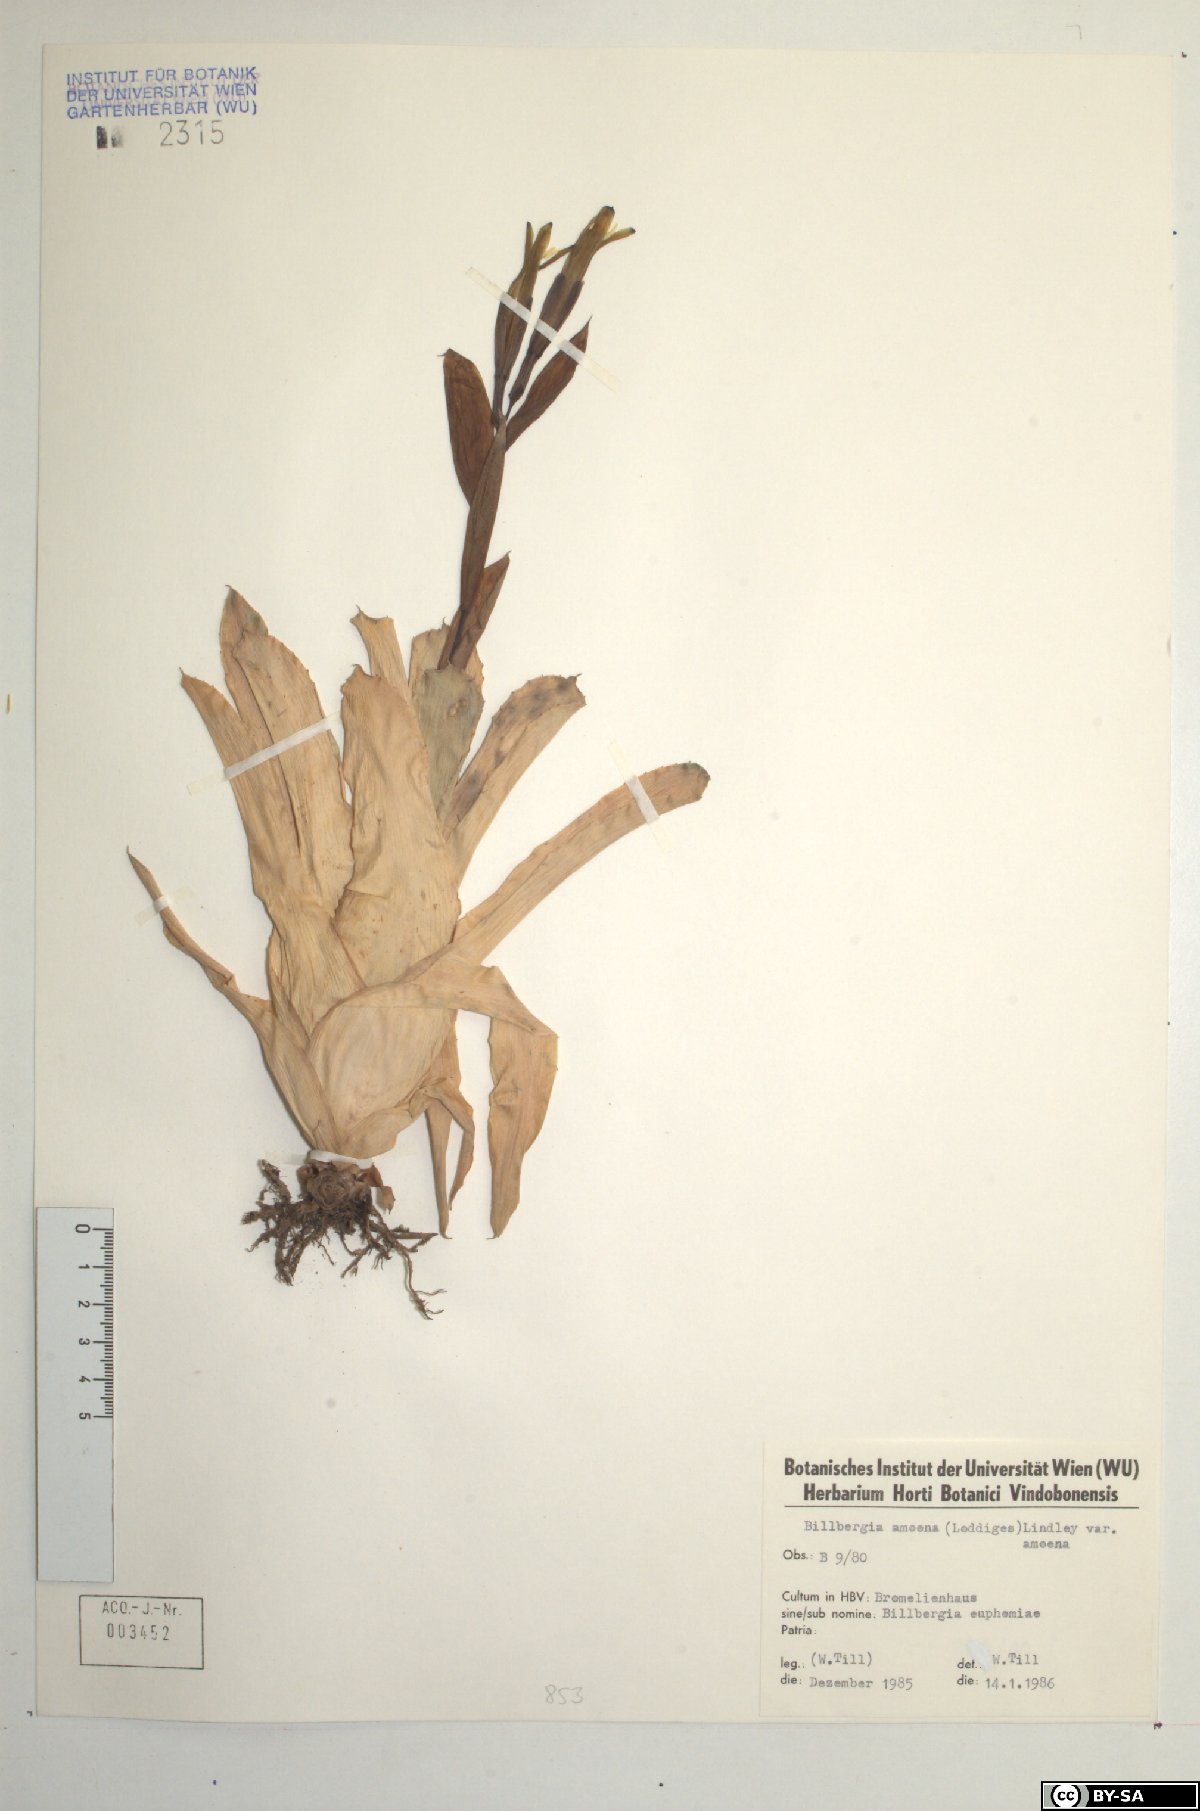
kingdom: Plantae
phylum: Tracheophyta
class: Liliopsida
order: Poales
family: Bromeliaceae
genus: Tillandsia
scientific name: Tillandsia tenuifolia
